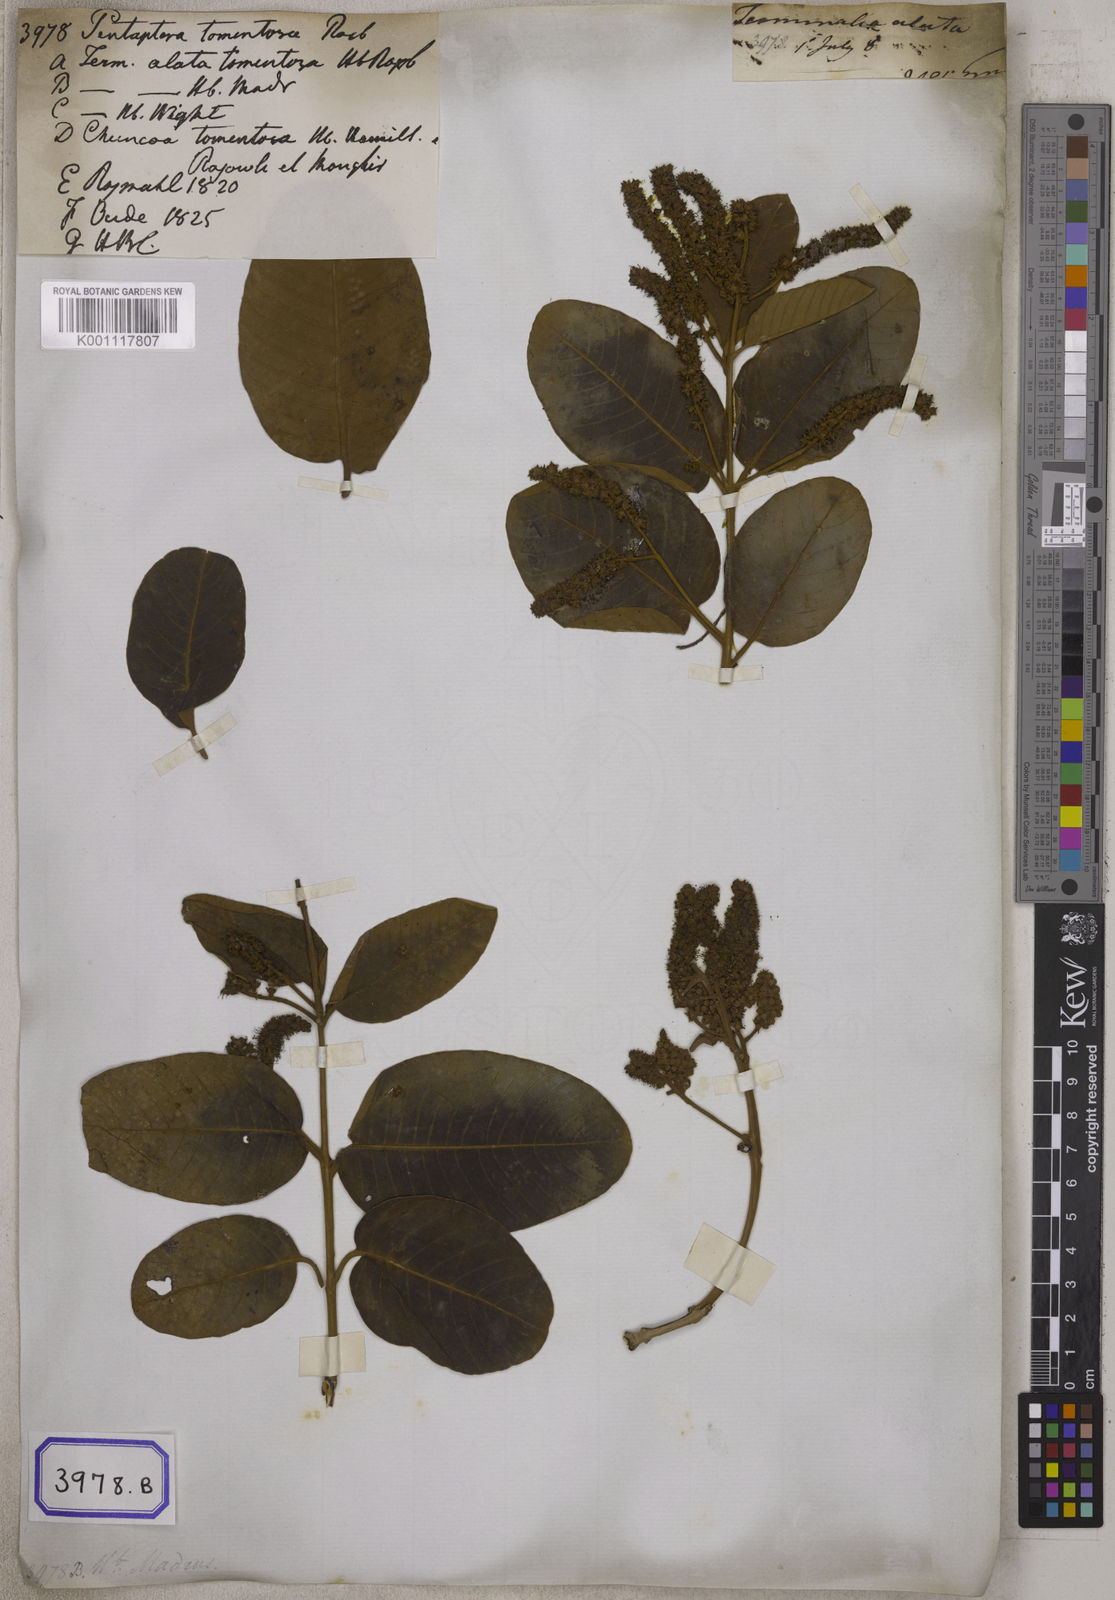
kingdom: Plantae
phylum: Tracheophyta
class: Magnoliopsida
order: Myrtales
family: Combretaceae
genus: Terminalia
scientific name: Terminalia
